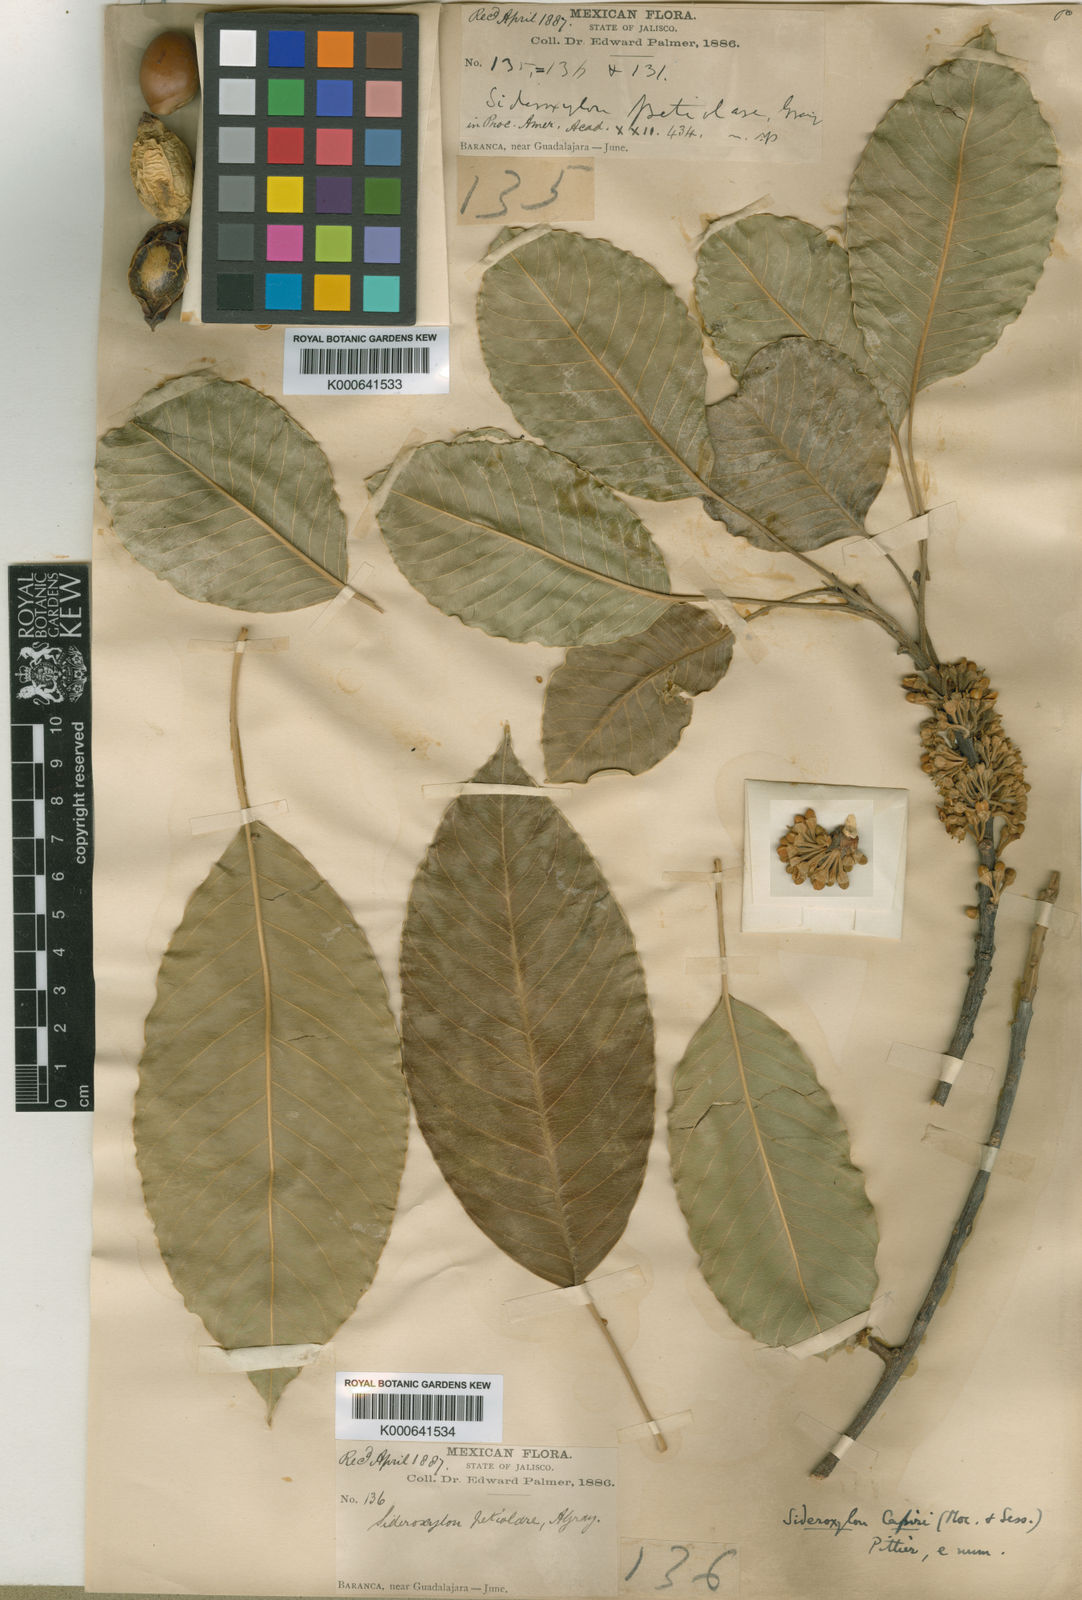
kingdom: Plantae
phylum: Tracheophyta
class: Magnoliopsida
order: Ericales
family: Sapotaceae
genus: Sideroxylon
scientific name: Sideroxylon capiri
